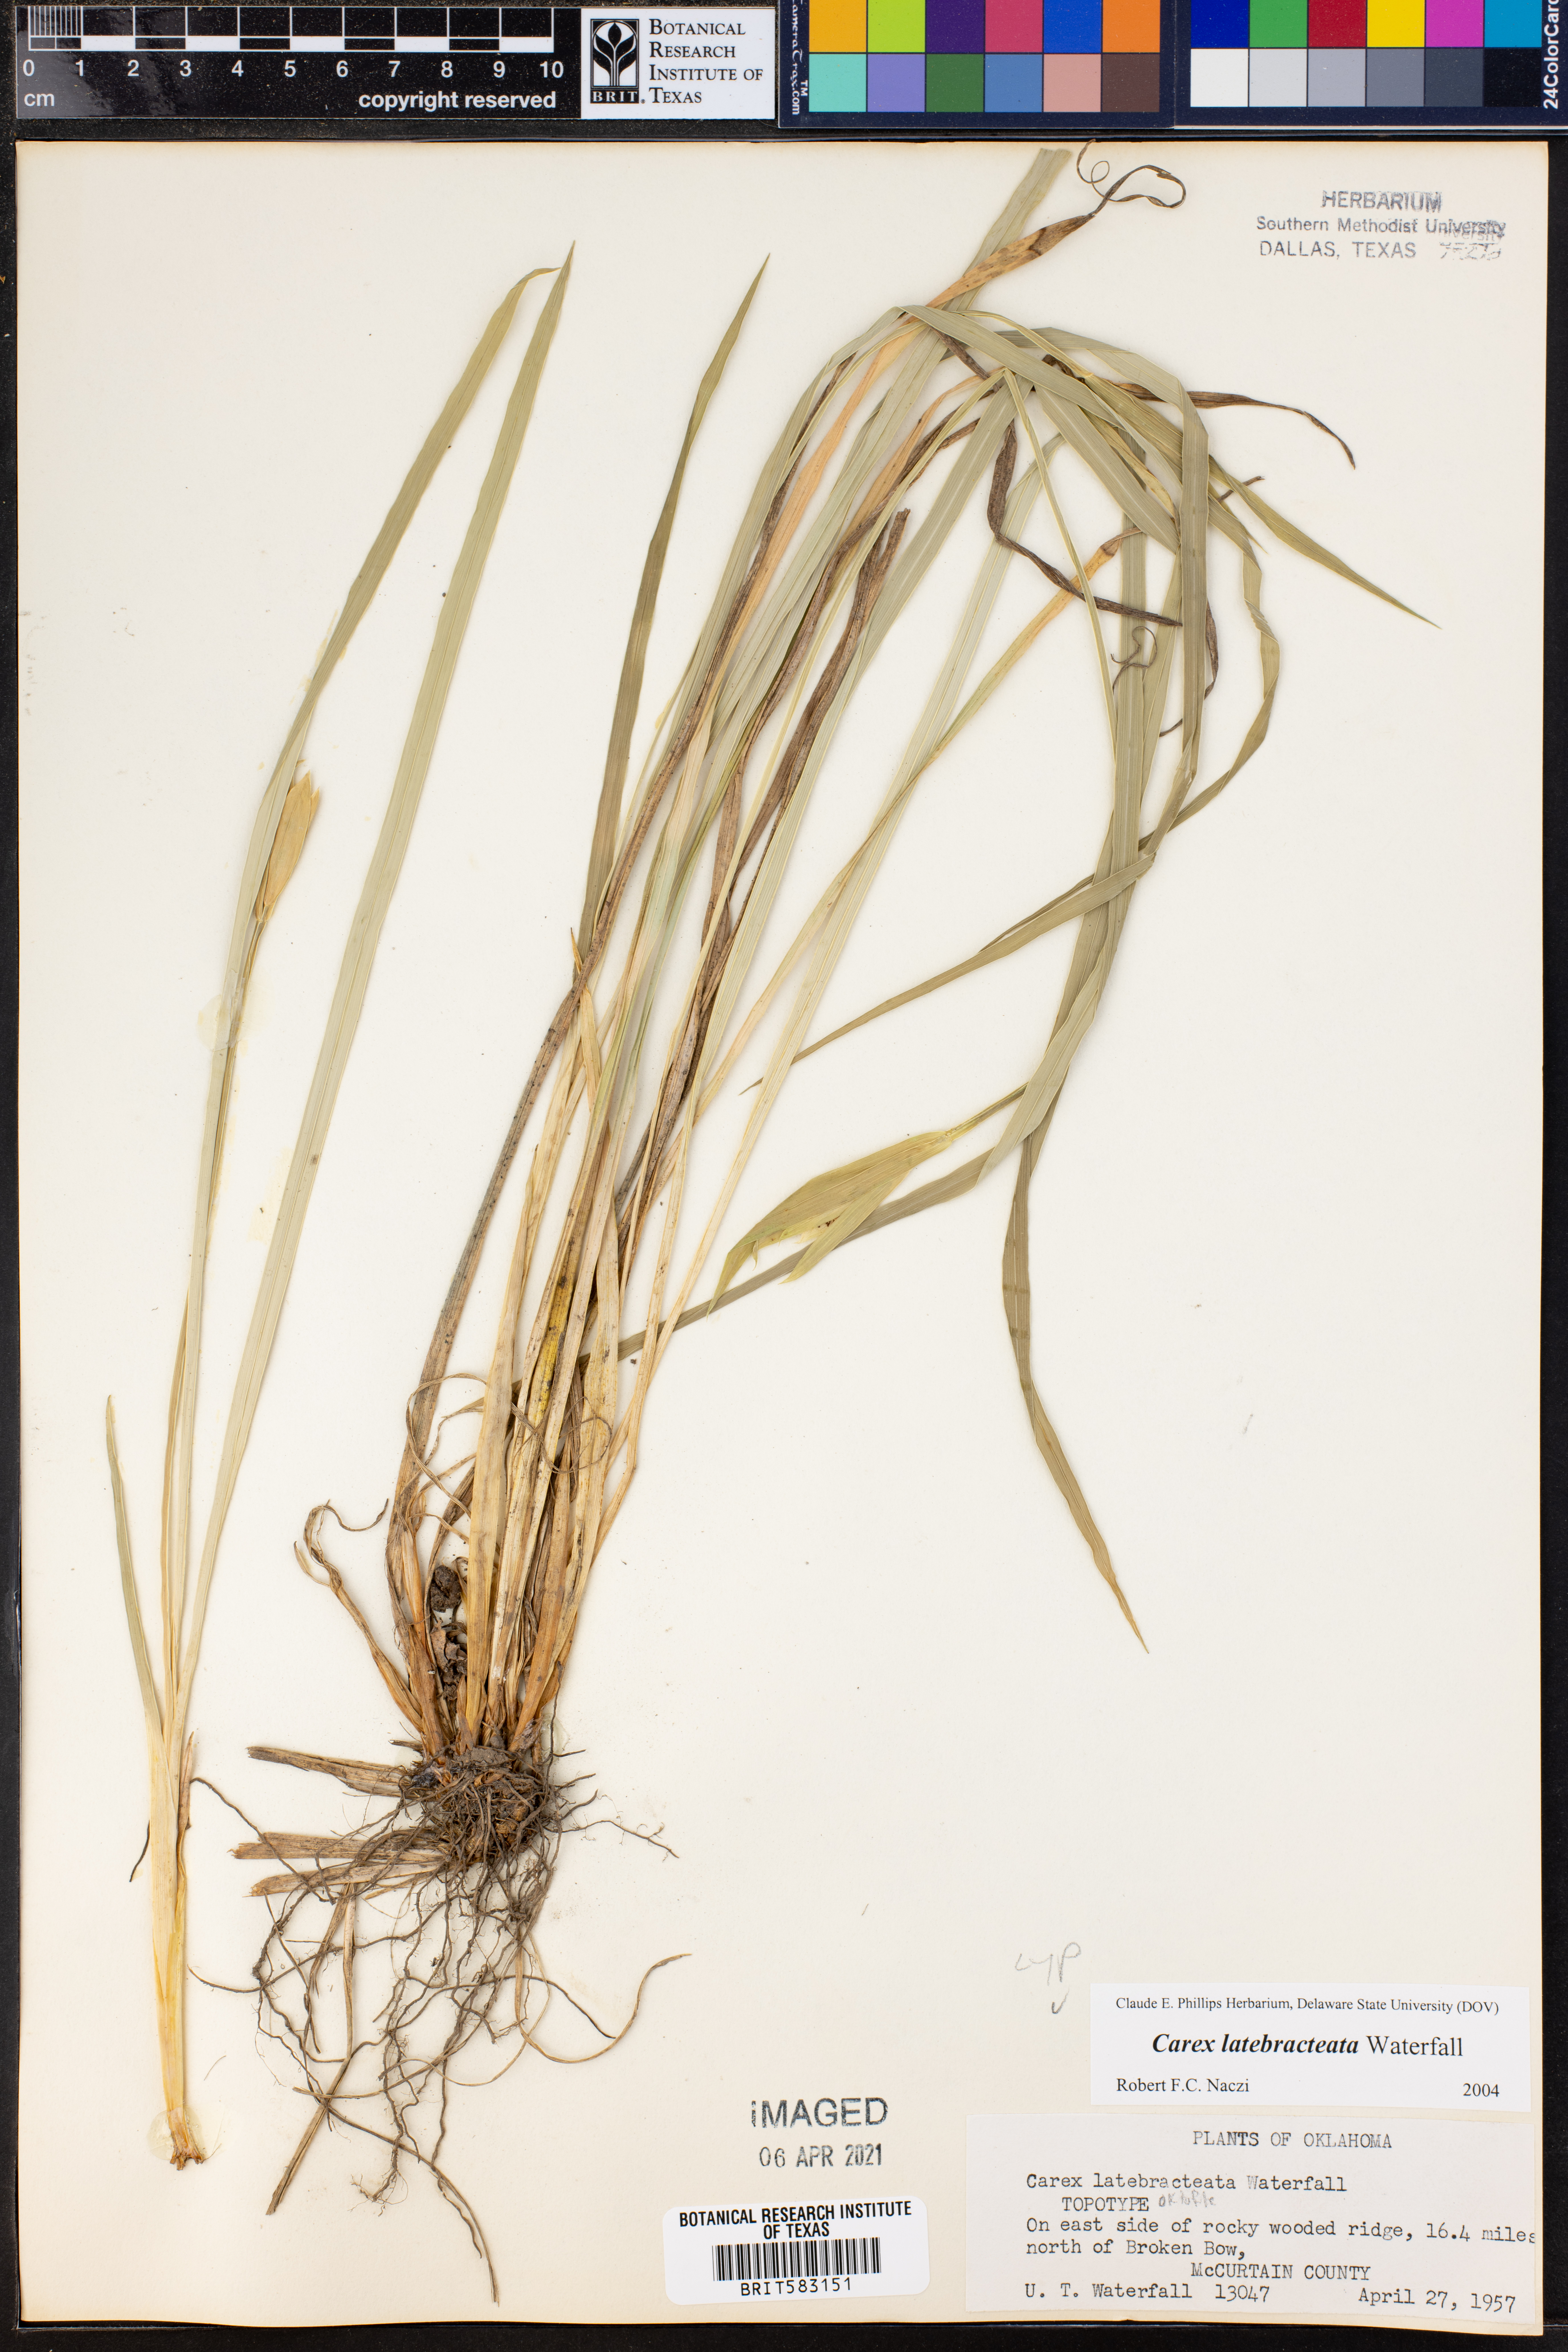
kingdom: Plantae
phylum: Tracheophyta
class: Liliopsida
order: Poales
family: Cyperaceae
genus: Carex
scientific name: Carex latebracteata
